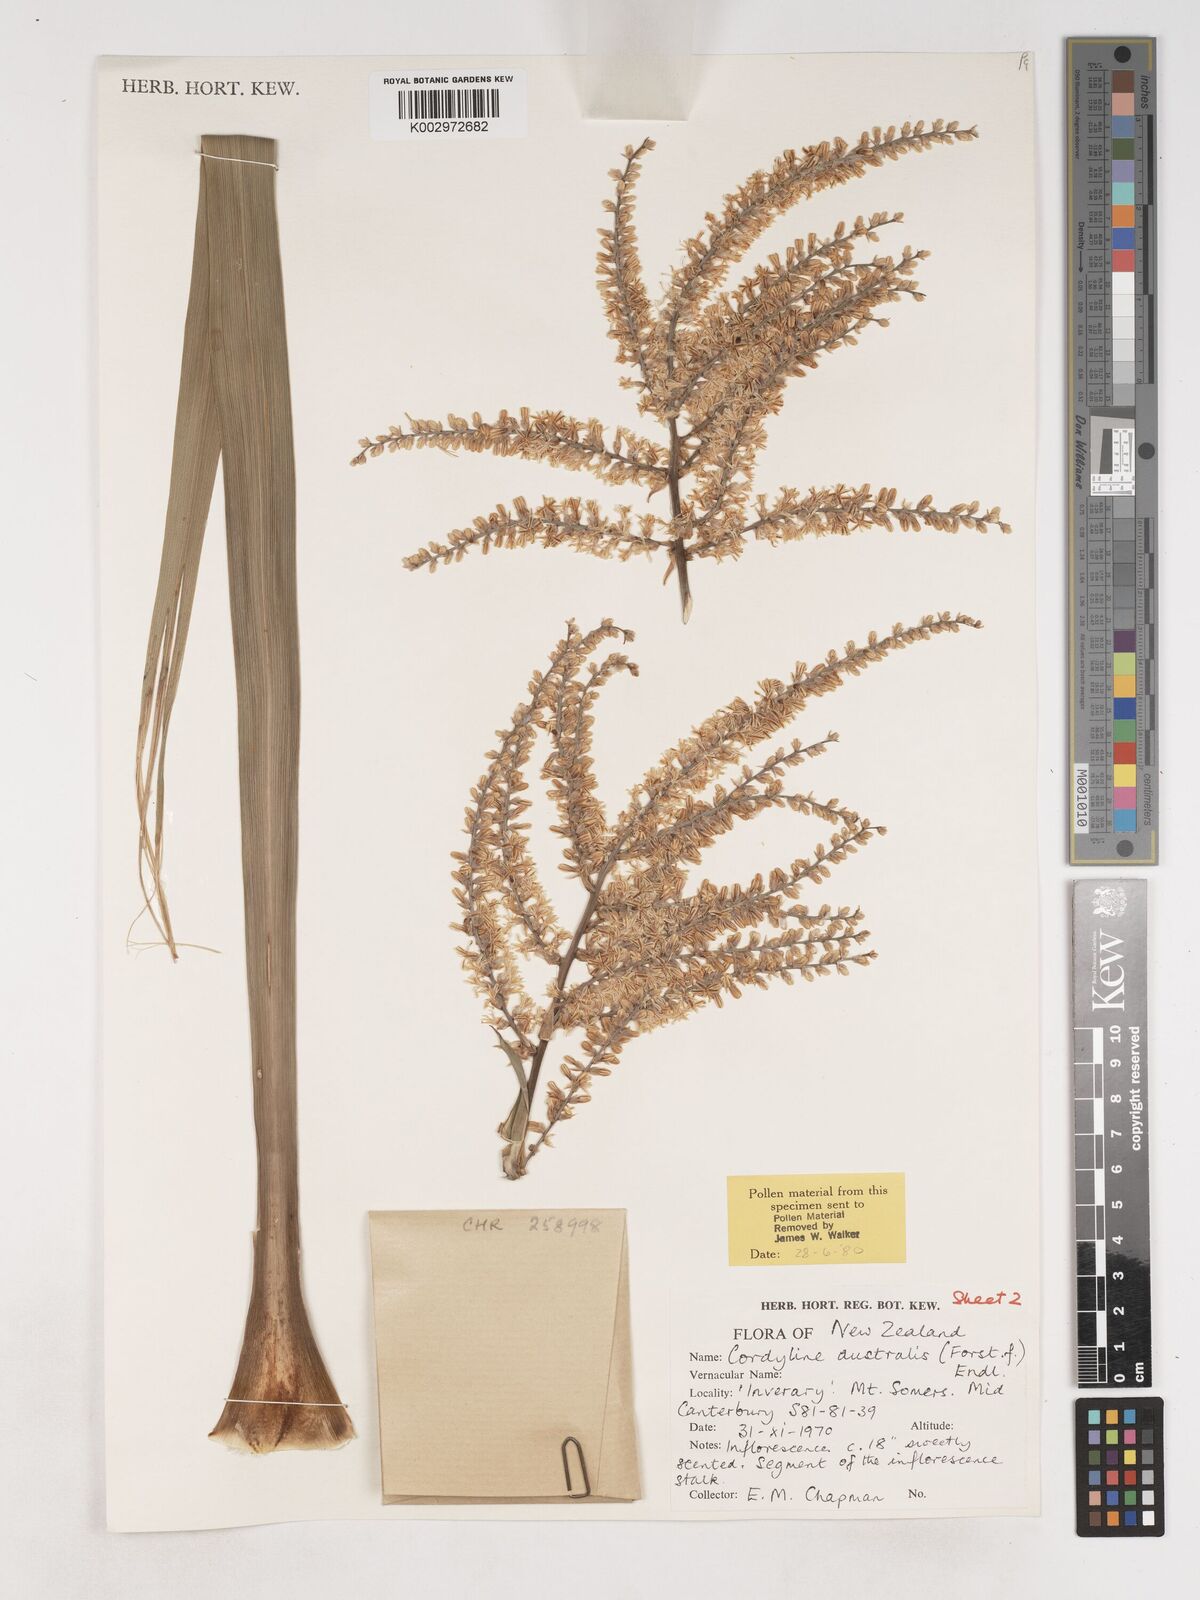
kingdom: Plantae
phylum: Tracheophyta
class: Liliopsida
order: Asparagales
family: Asparagaceae
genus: Cordyline
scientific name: Cordyline australis
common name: Cabbage-palm
